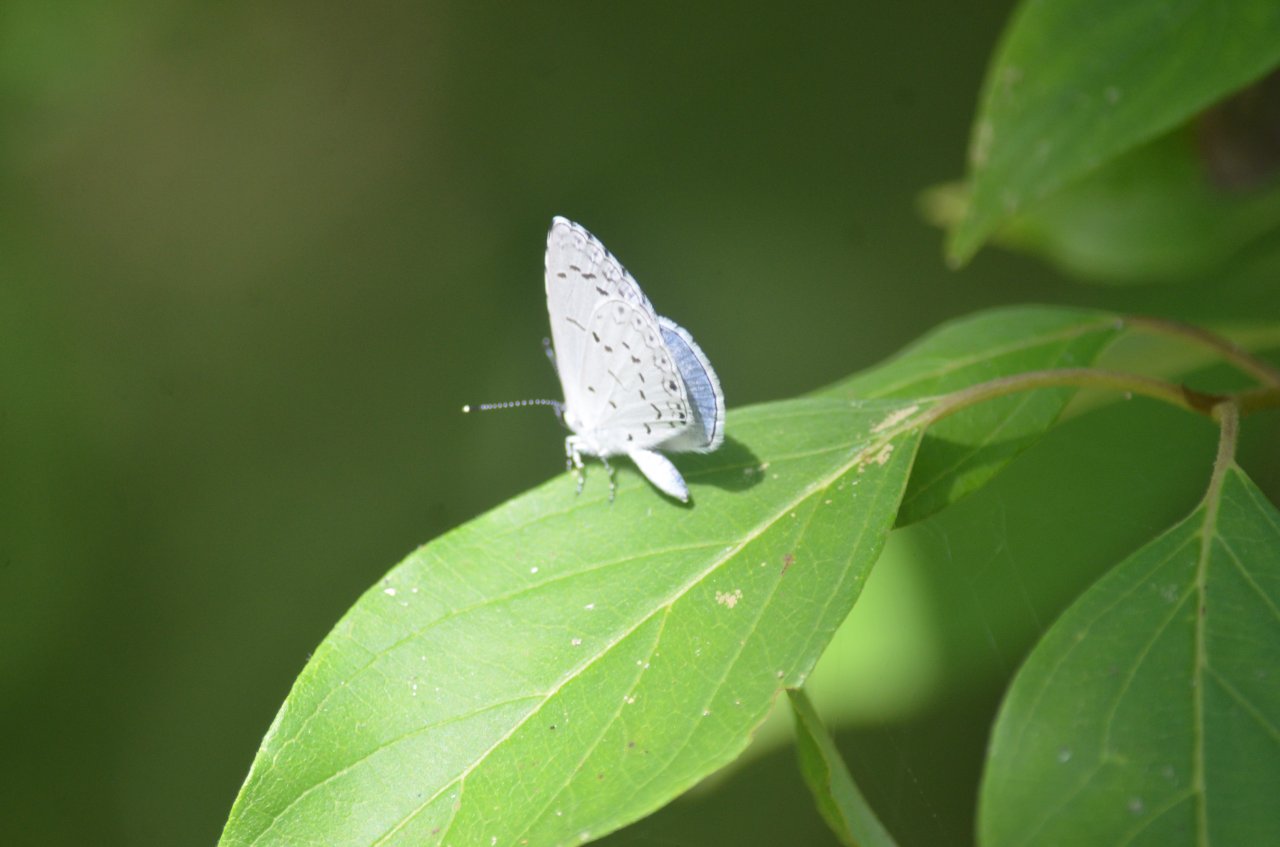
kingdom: Animalia
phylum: Arthropoda
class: Insecta
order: Lepidoptera
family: Lycaenidae
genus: Celastrina
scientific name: Celastrina
